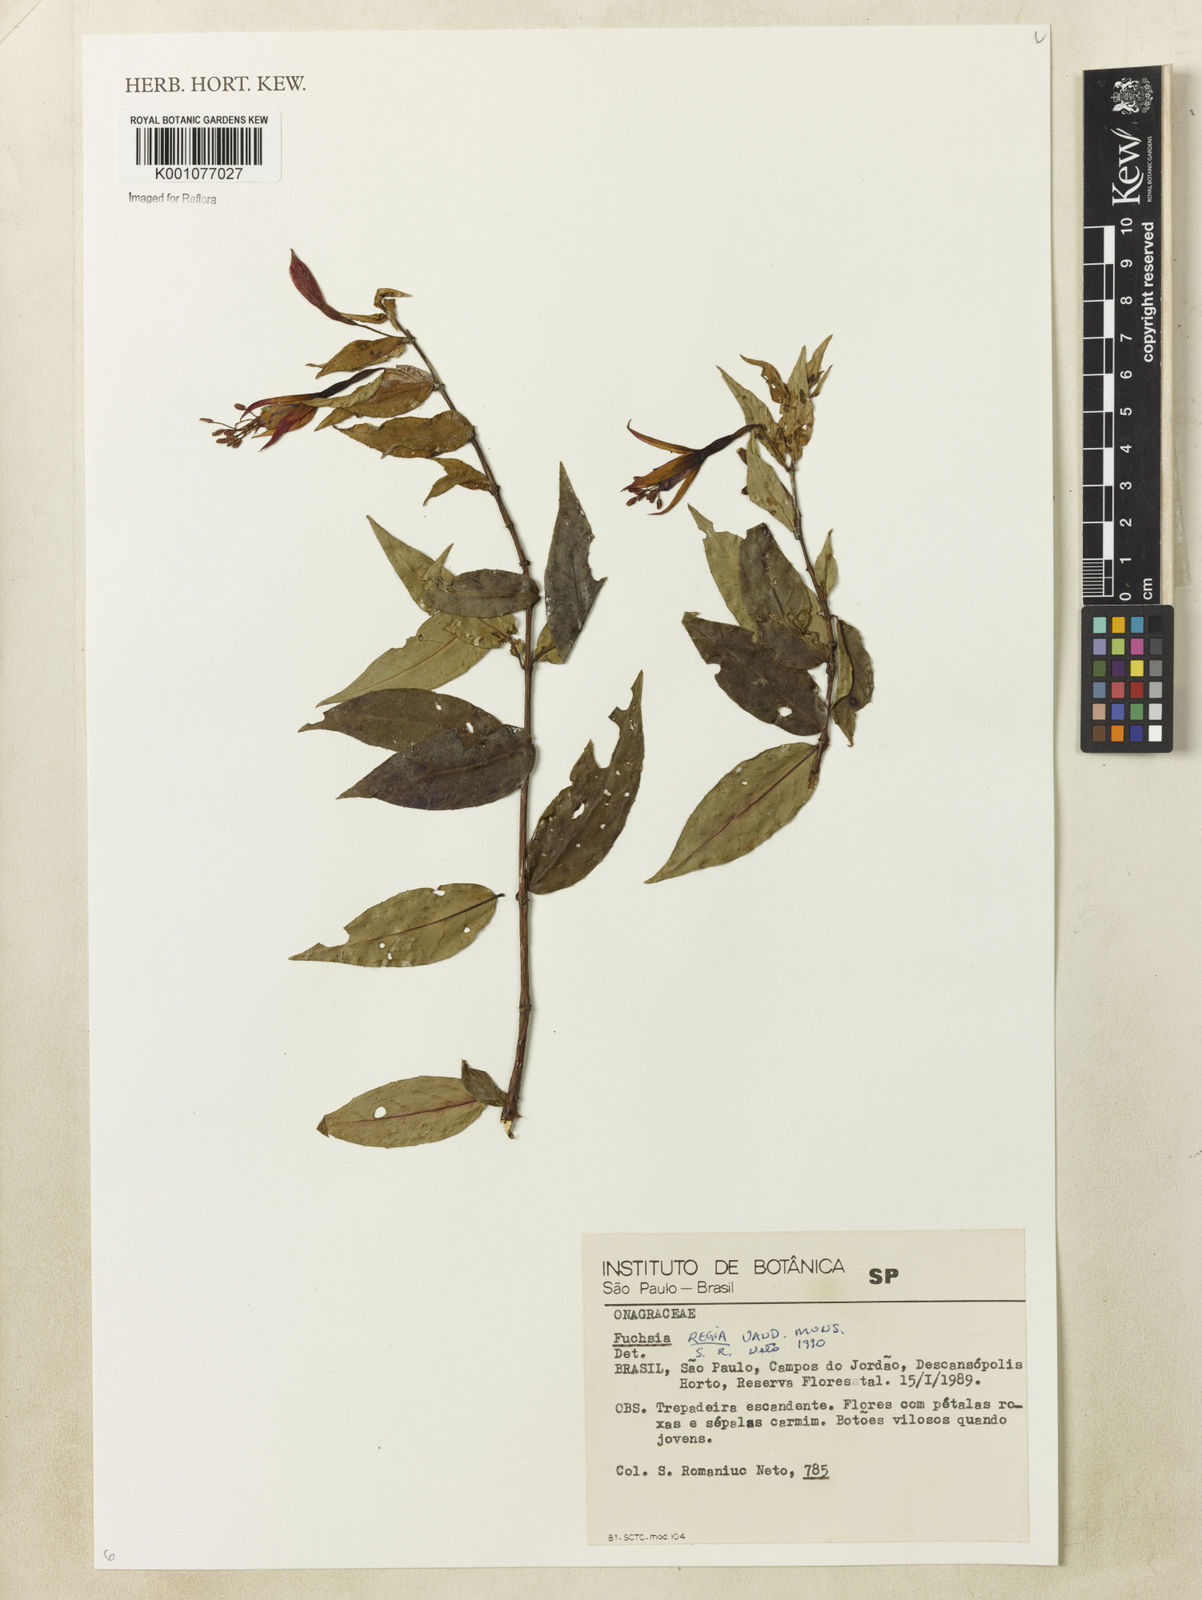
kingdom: Plantae
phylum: Tracheophyta
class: Magnoliopsida
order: Myrtales
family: Onagraceae
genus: Fuchsia
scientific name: Fuchsia regia
